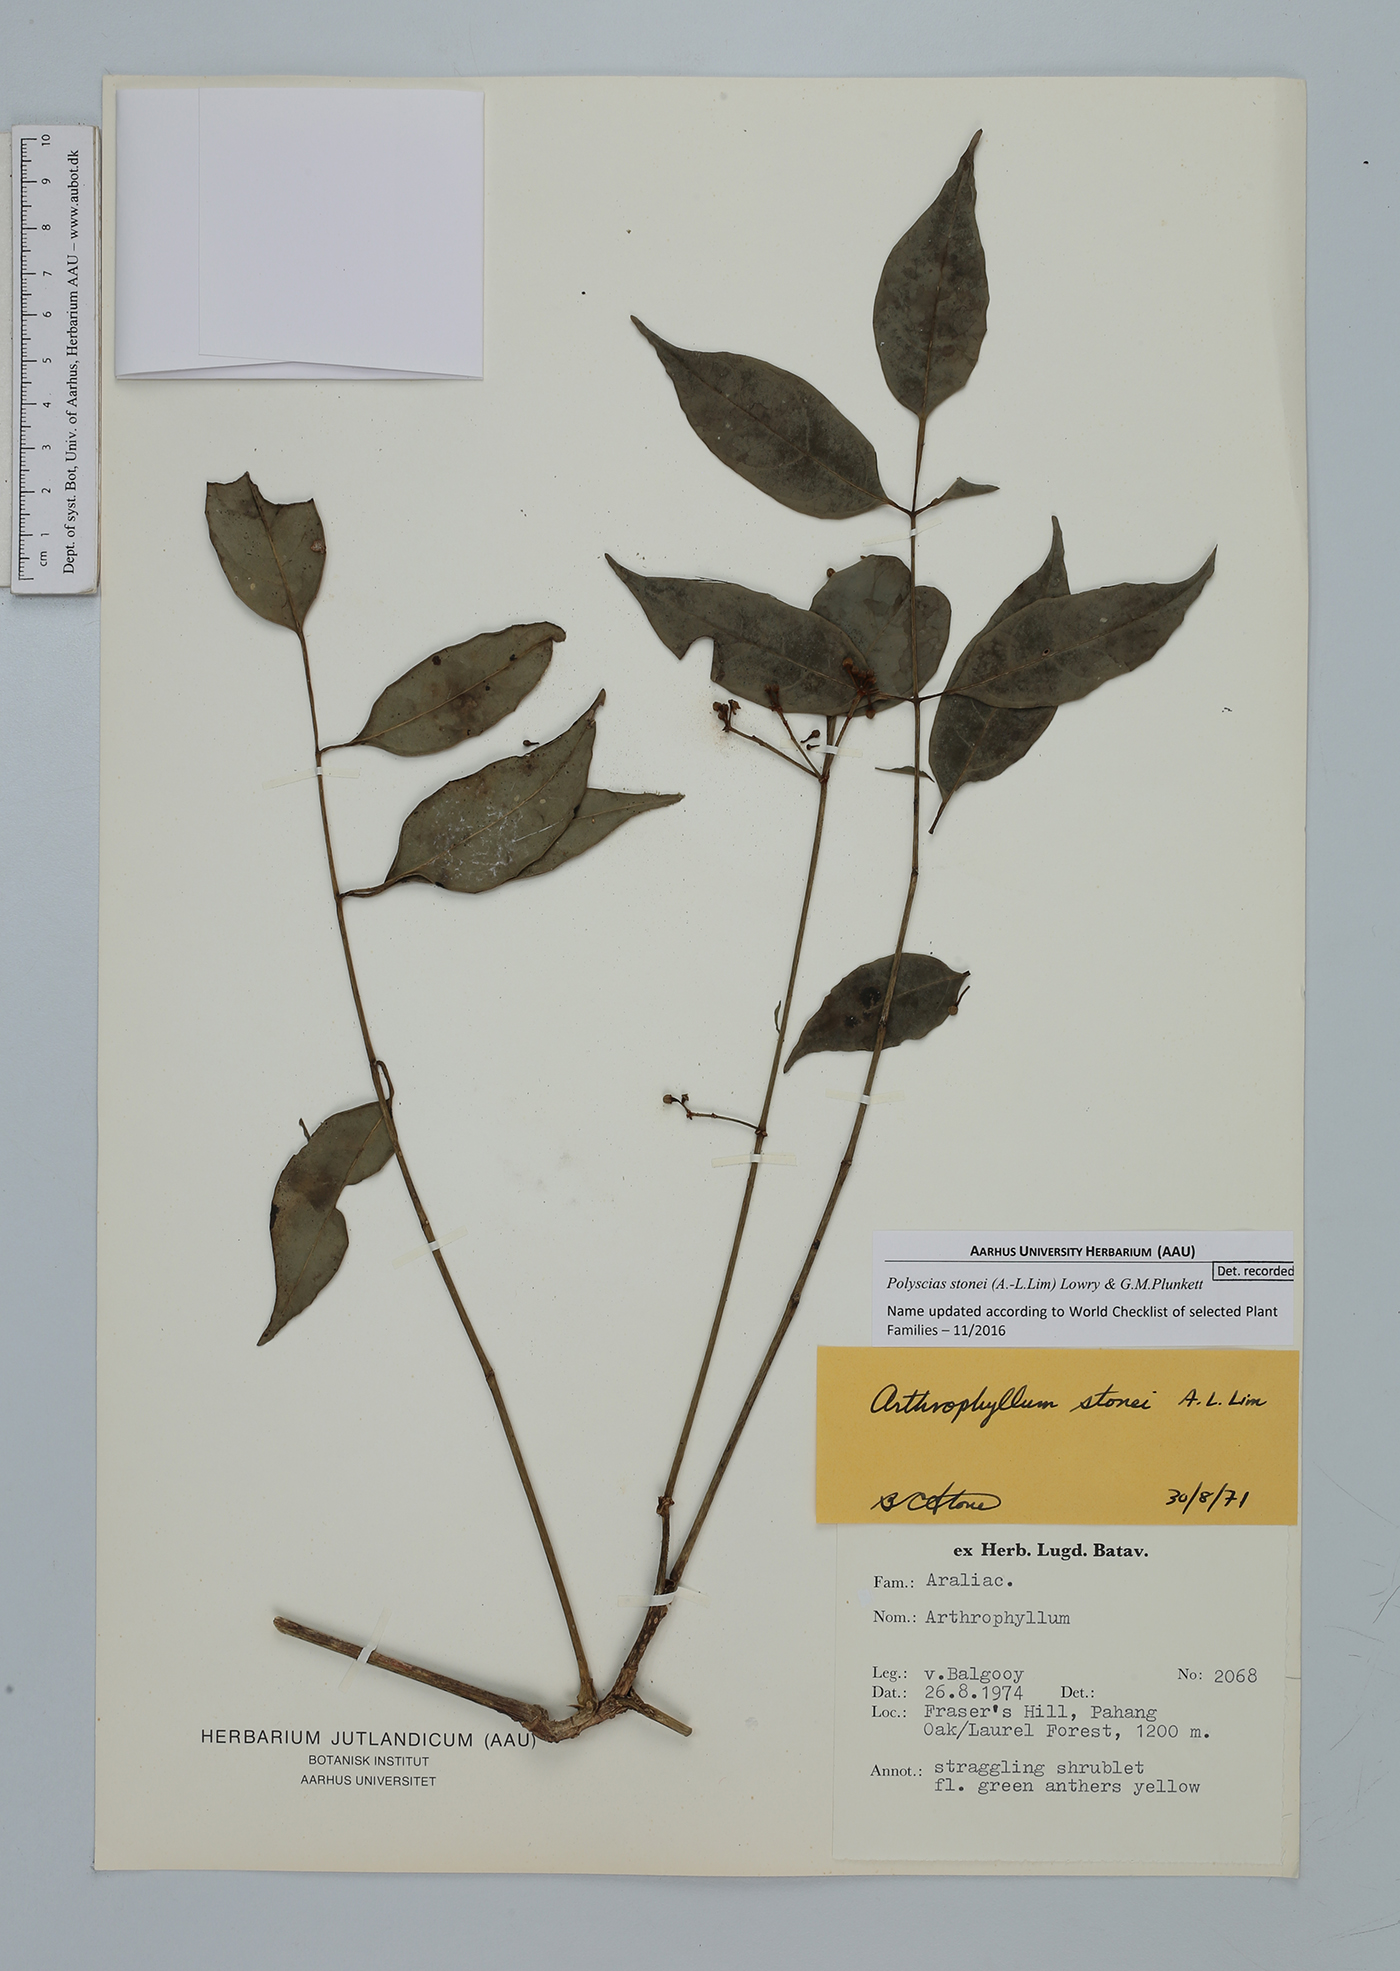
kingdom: Plantae
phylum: Tracheophyta
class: Magnoliopsida
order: Apiales
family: Araliaceae
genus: Polyscias
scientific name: Polyscias stonei
